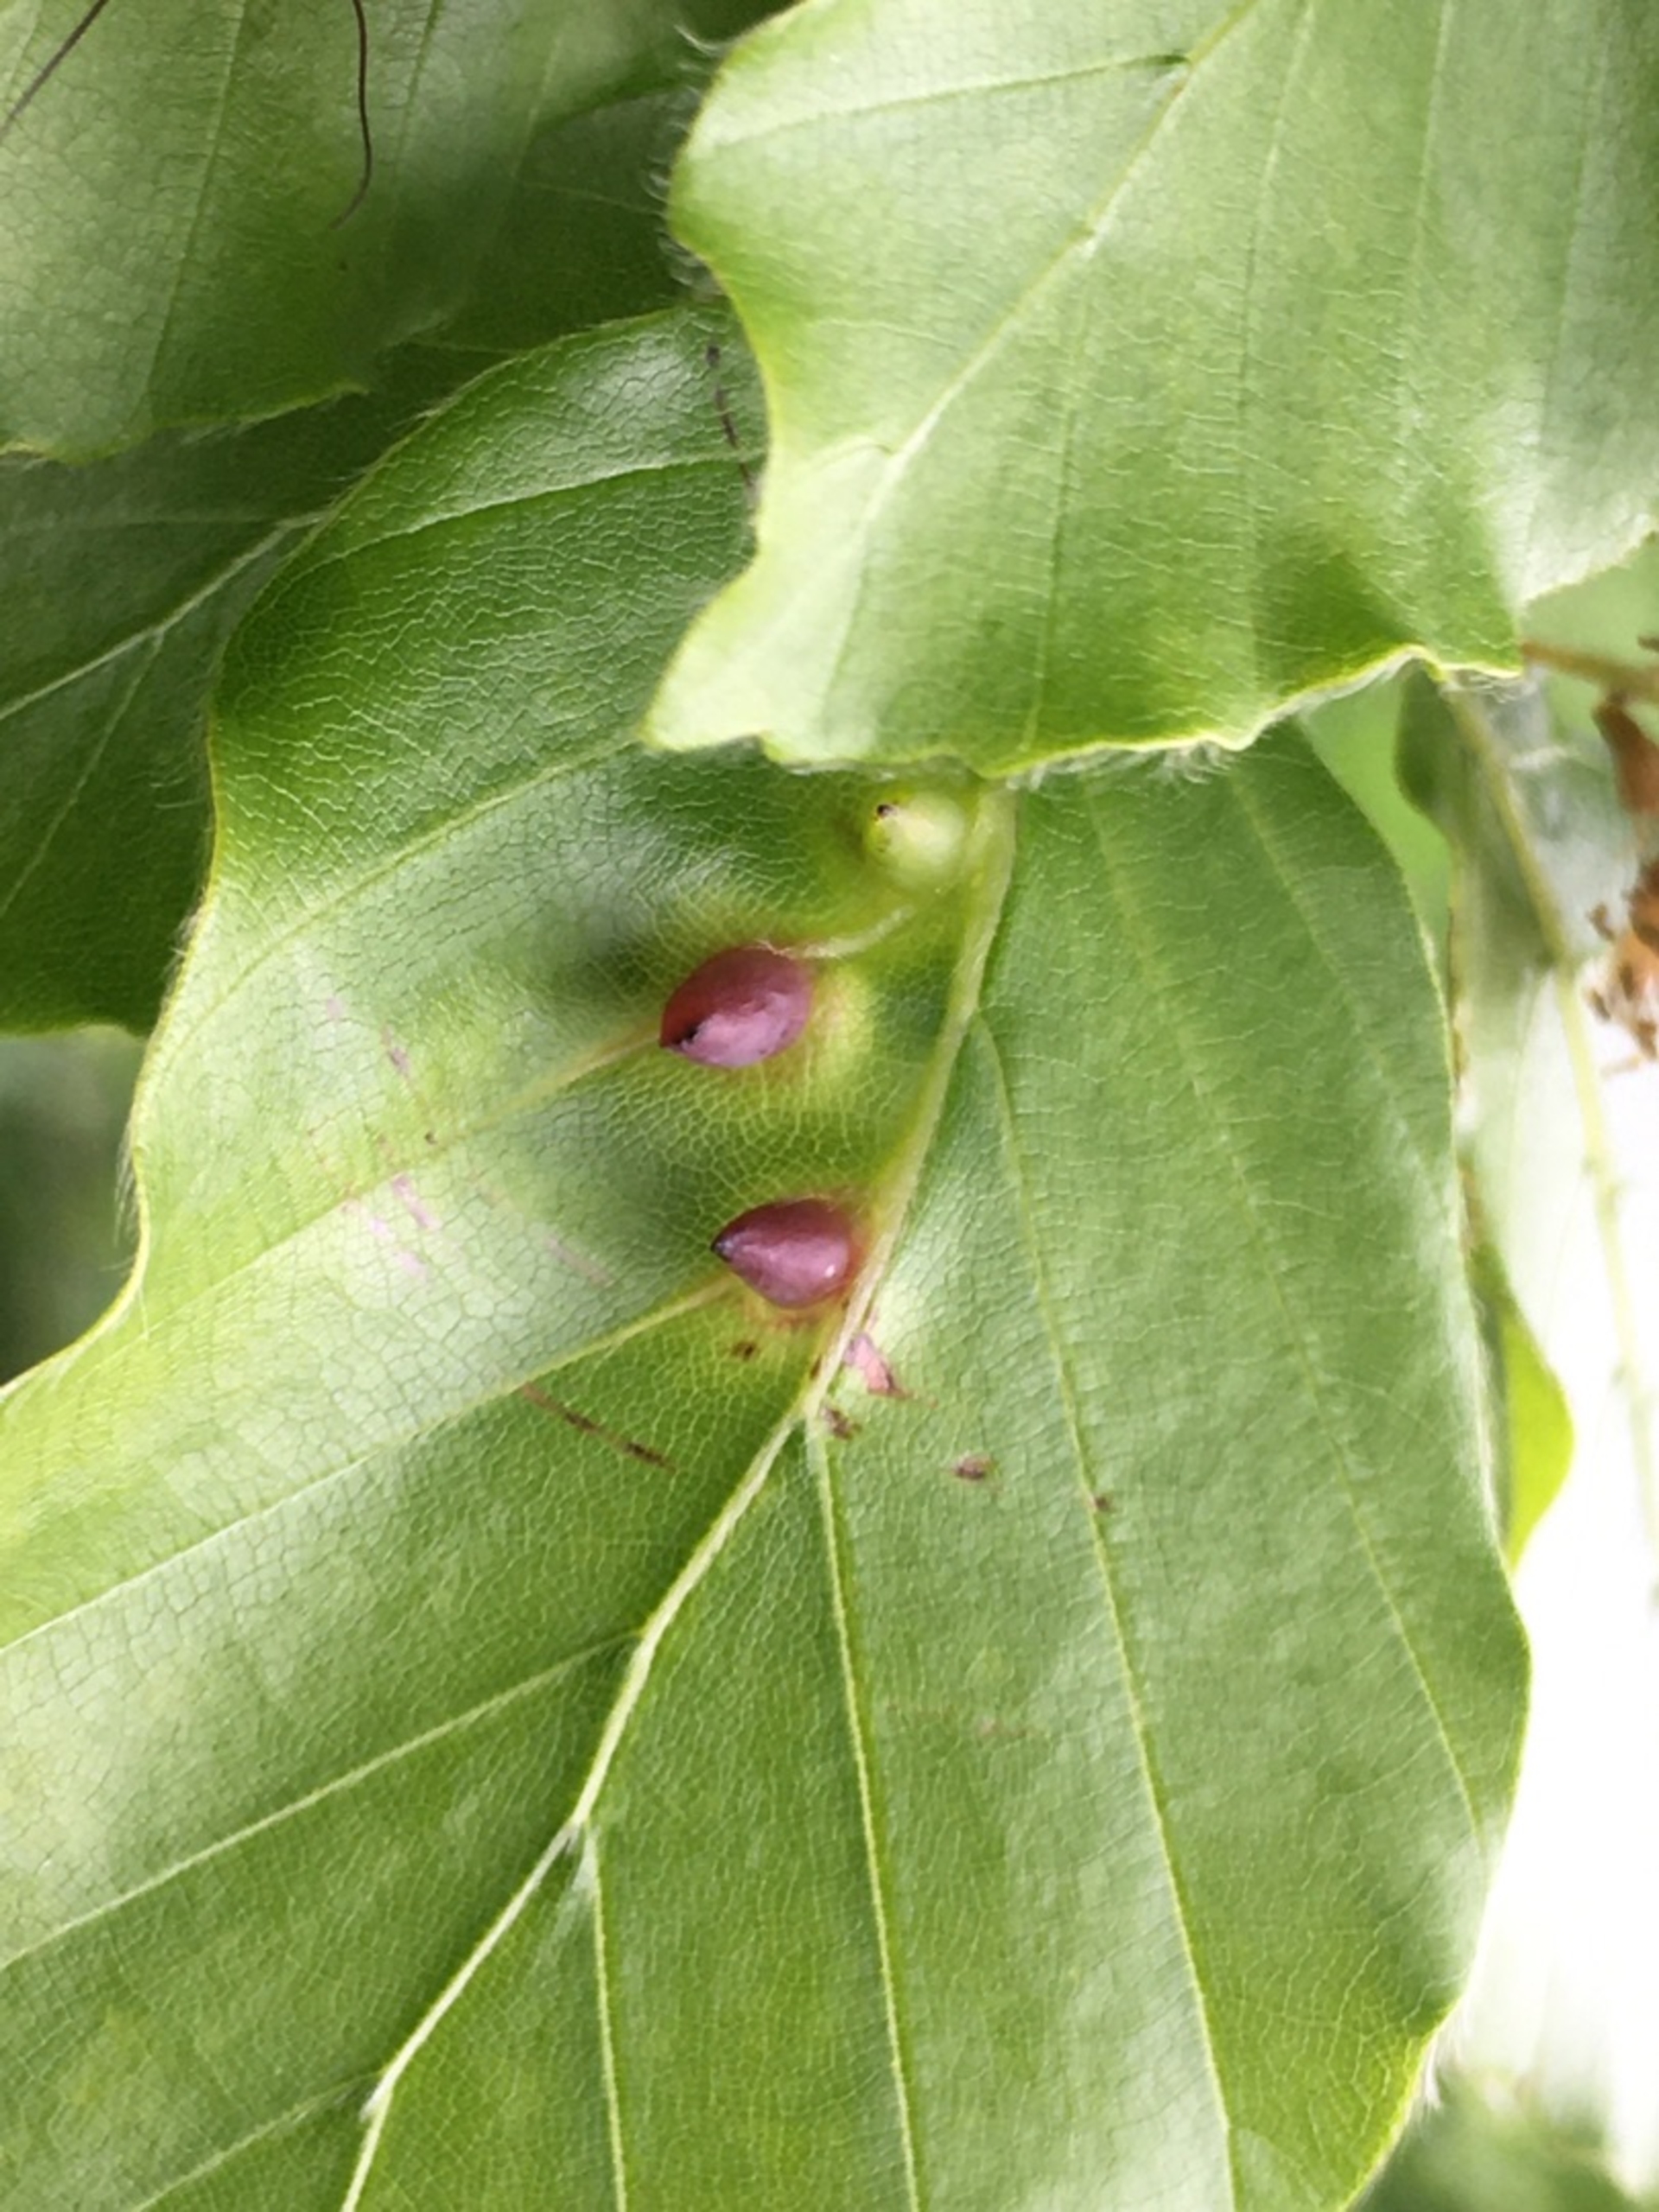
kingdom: Animalia
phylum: Arthropoda
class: Insecta
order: Diptera
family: Cecidomyiidae
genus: Mikiola
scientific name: Mikiola fagi
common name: Bøgegalmyg
